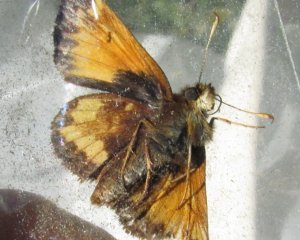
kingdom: Animalia
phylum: Arthropoda
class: Insecta
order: Lepidoptera
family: Hesperiidae
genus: Lon
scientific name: Lon hobomok
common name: Hobomok Skipper
